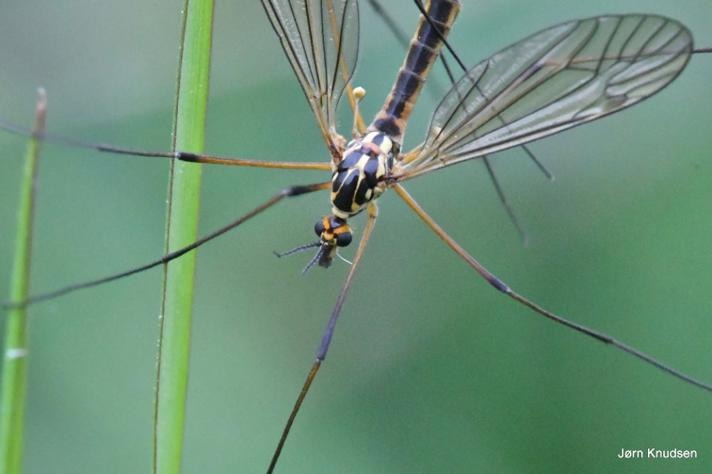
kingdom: Animalia
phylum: Arthropoda
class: Insecta
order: Diptera
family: Tipulidae
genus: Nephrotoma
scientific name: Nephrotoma appendiculata
